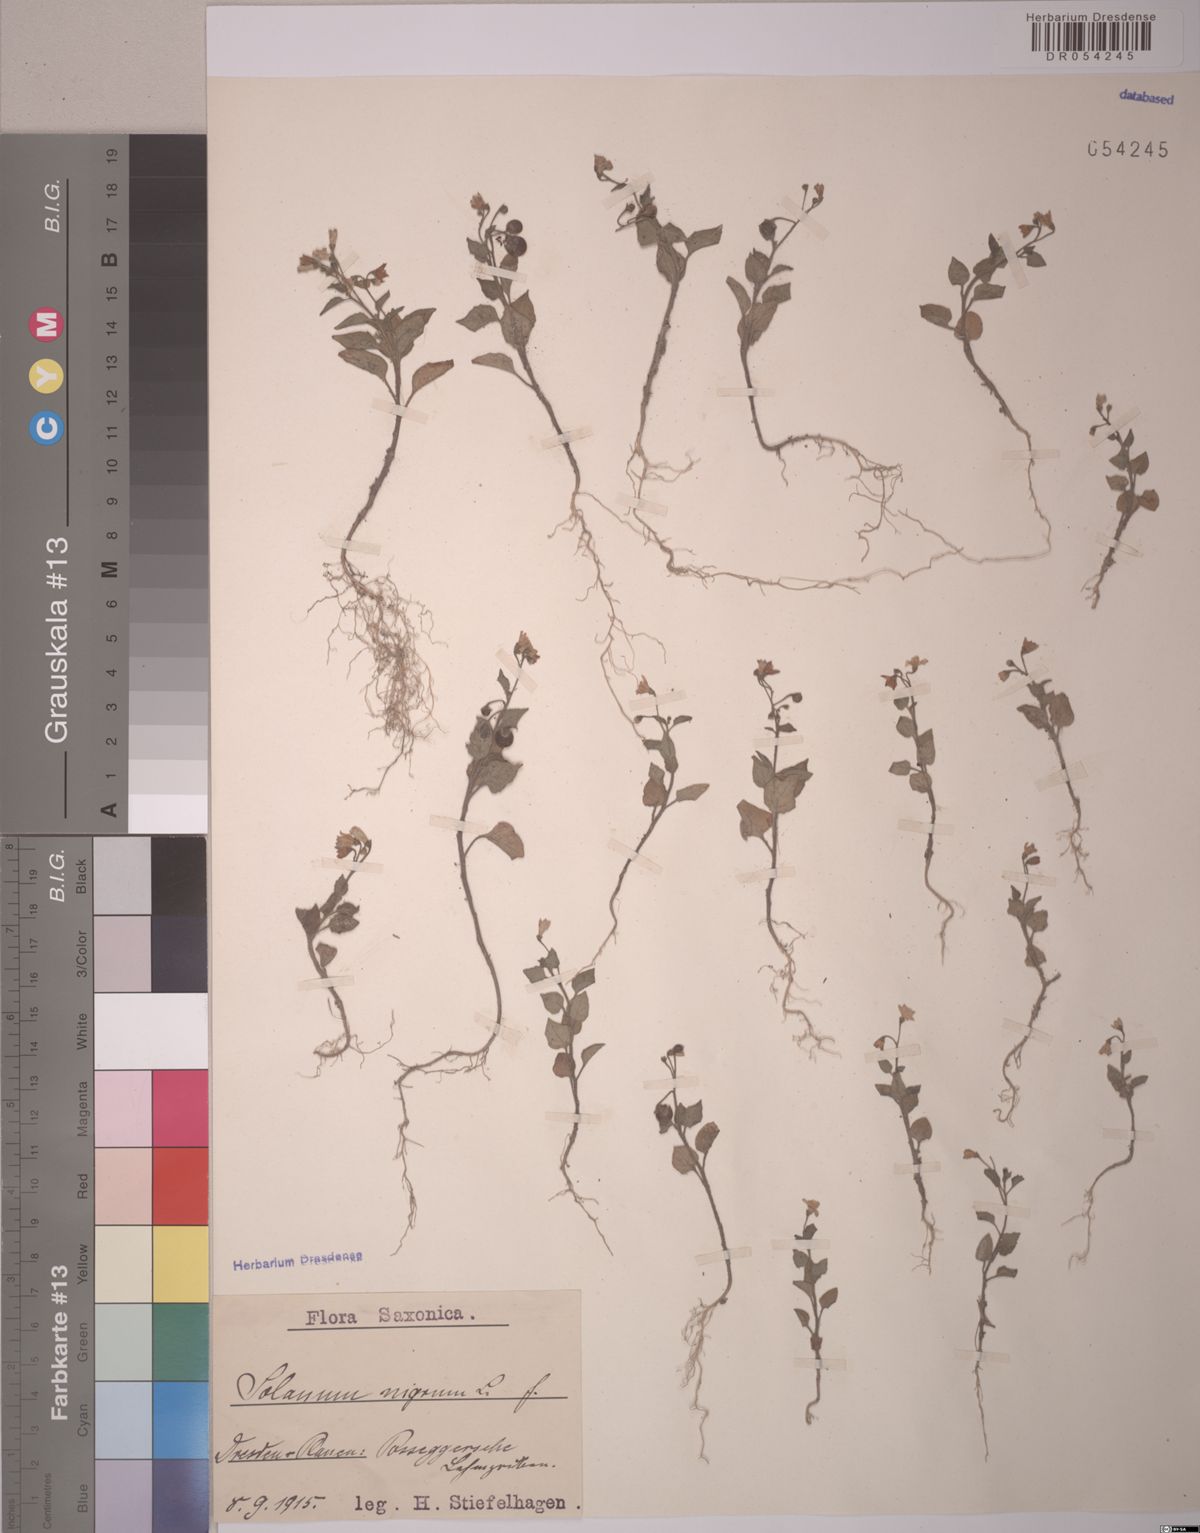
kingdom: Plantae
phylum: Tracheophyta
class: Magnoliopsida
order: Solanales
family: Solanaceae
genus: Solanum
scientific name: Solanum nigrum
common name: Black nightshade
